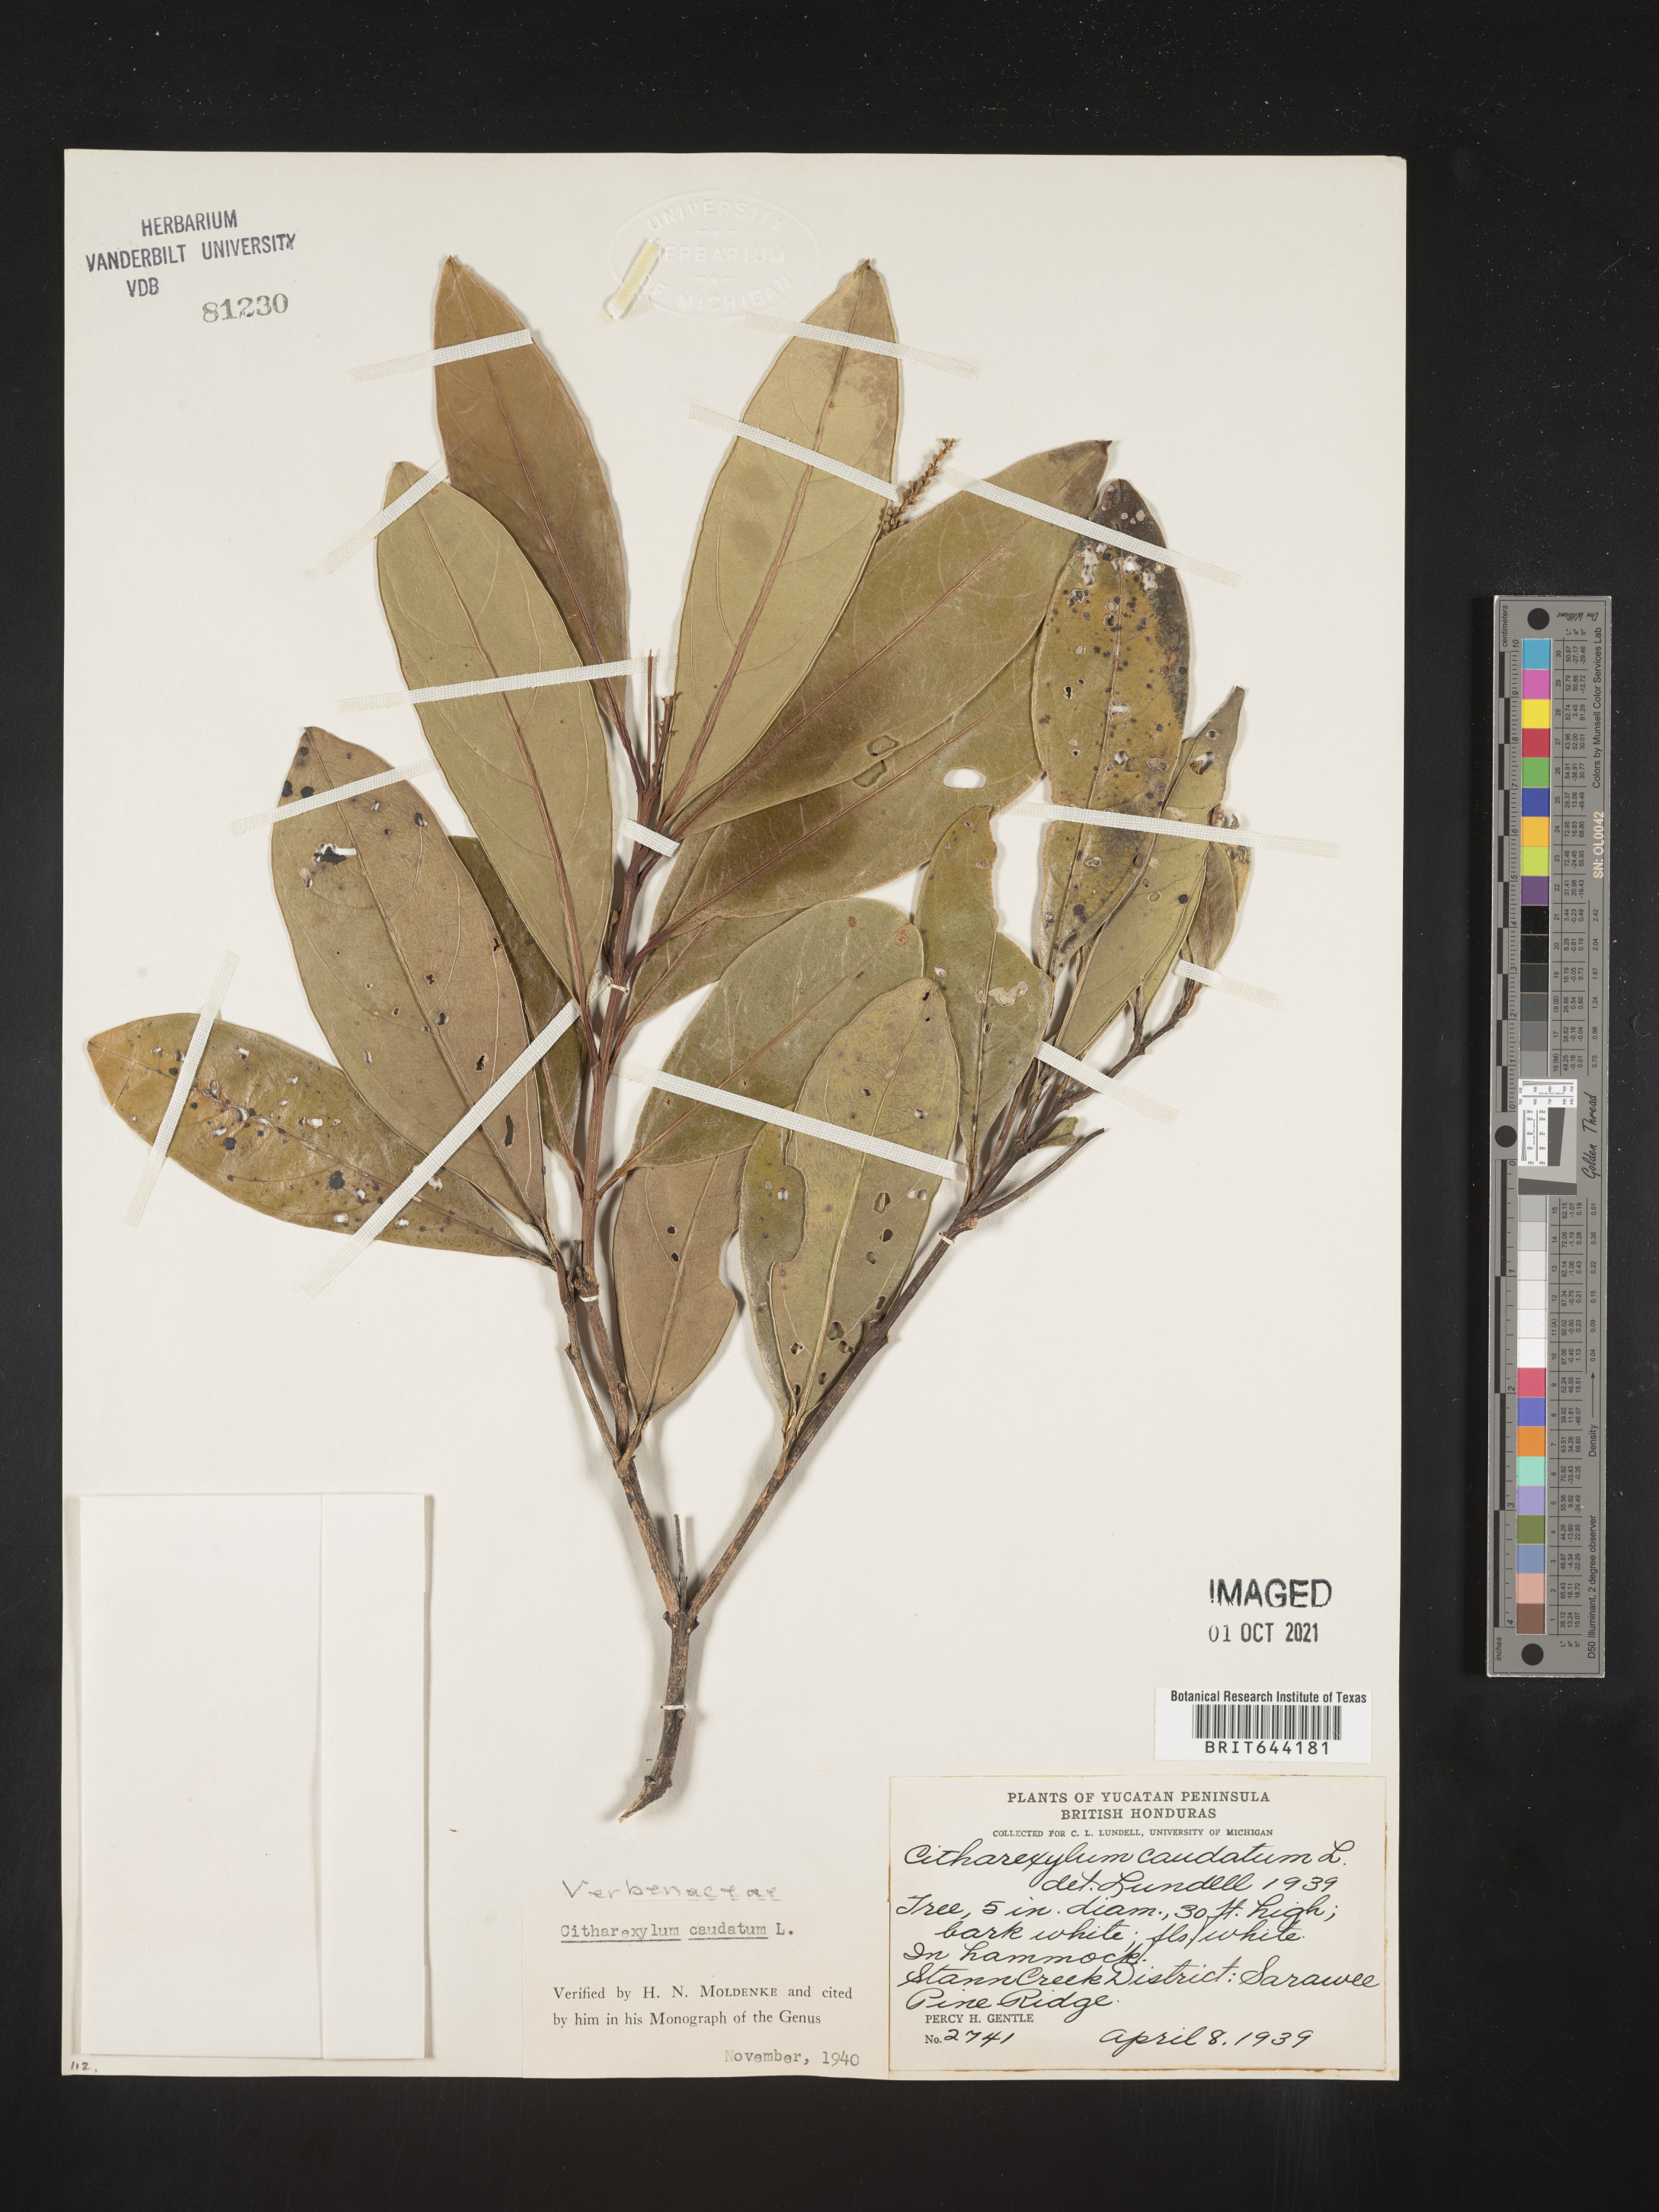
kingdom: Plantae
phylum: Tracheophyta
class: Magnoliopsida
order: Lamiales
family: Verbenaceae
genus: Citharexylum
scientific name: Citharexylum
